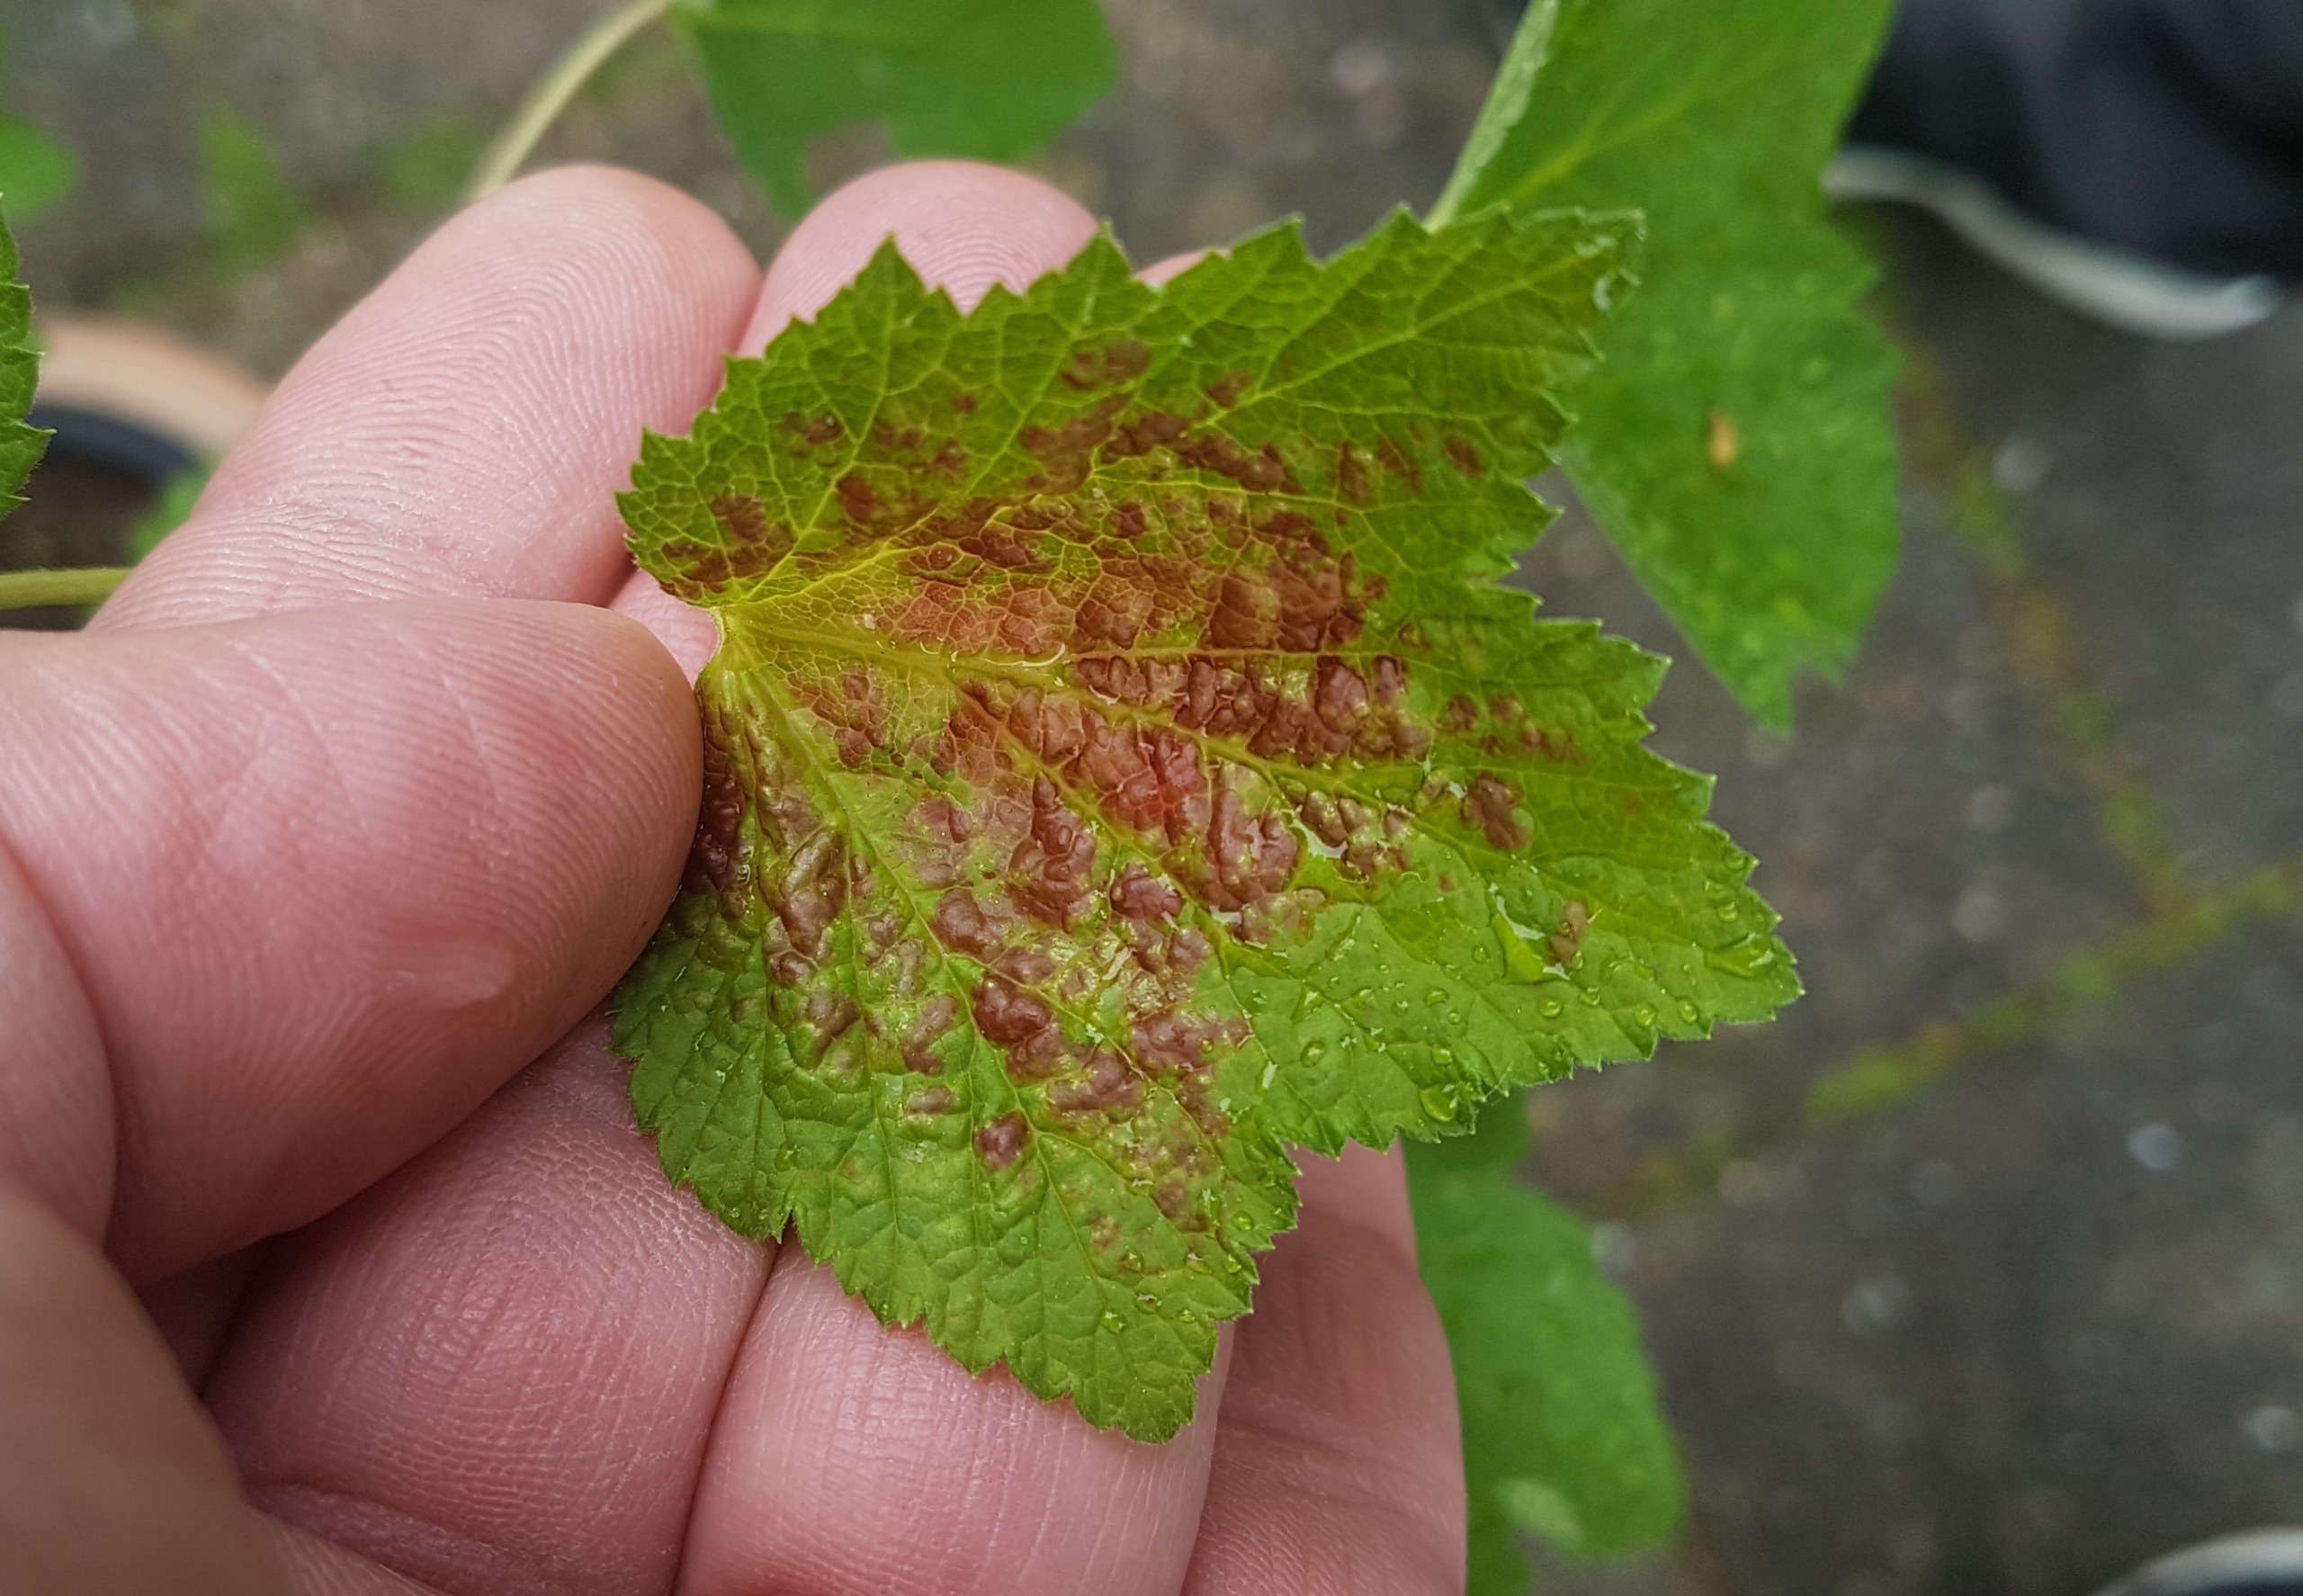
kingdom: Animalia
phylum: Arthropoda
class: Insecta
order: Hemiptera
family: Aphididae
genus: Cryptomyzus
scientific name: Cryptomyzus ribis
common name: Ribsbladlus
